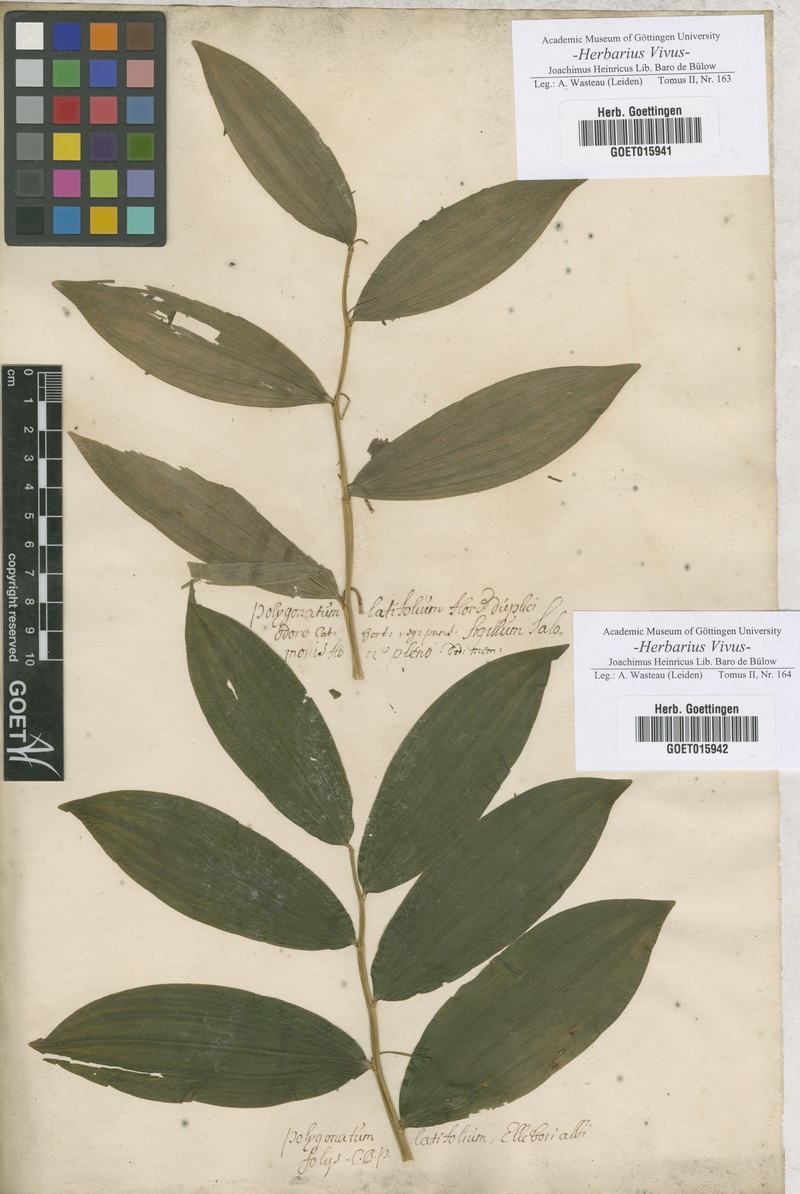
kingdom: Plantae
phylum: Tracheophyta
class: Liliopsida
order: Asparagales
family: Asparagaceae
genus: Polygonatum
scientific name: Polygonatum
